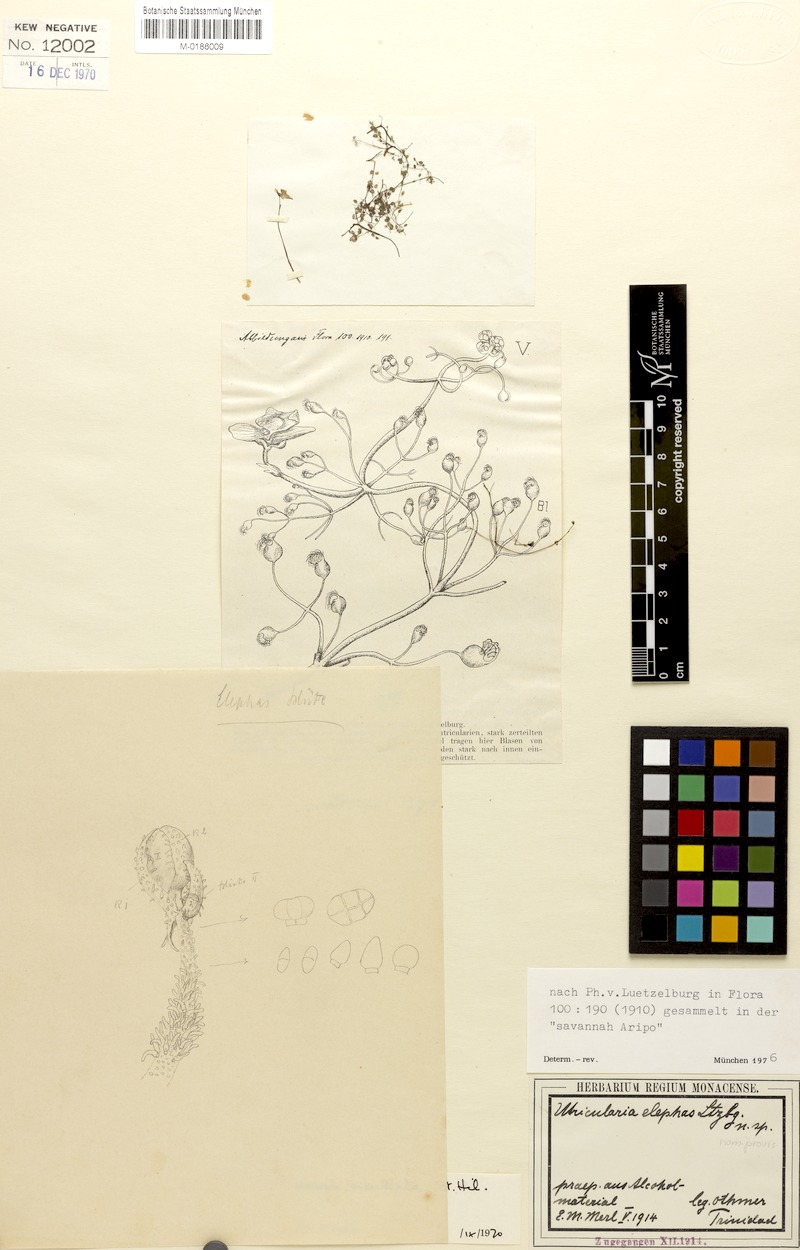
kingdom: Plantae
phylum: Tracheophyta
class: Magnoliopsida
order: Lamiales
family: Lentibulariaceae
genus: Utricularia
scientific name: Utricularia cucullata
